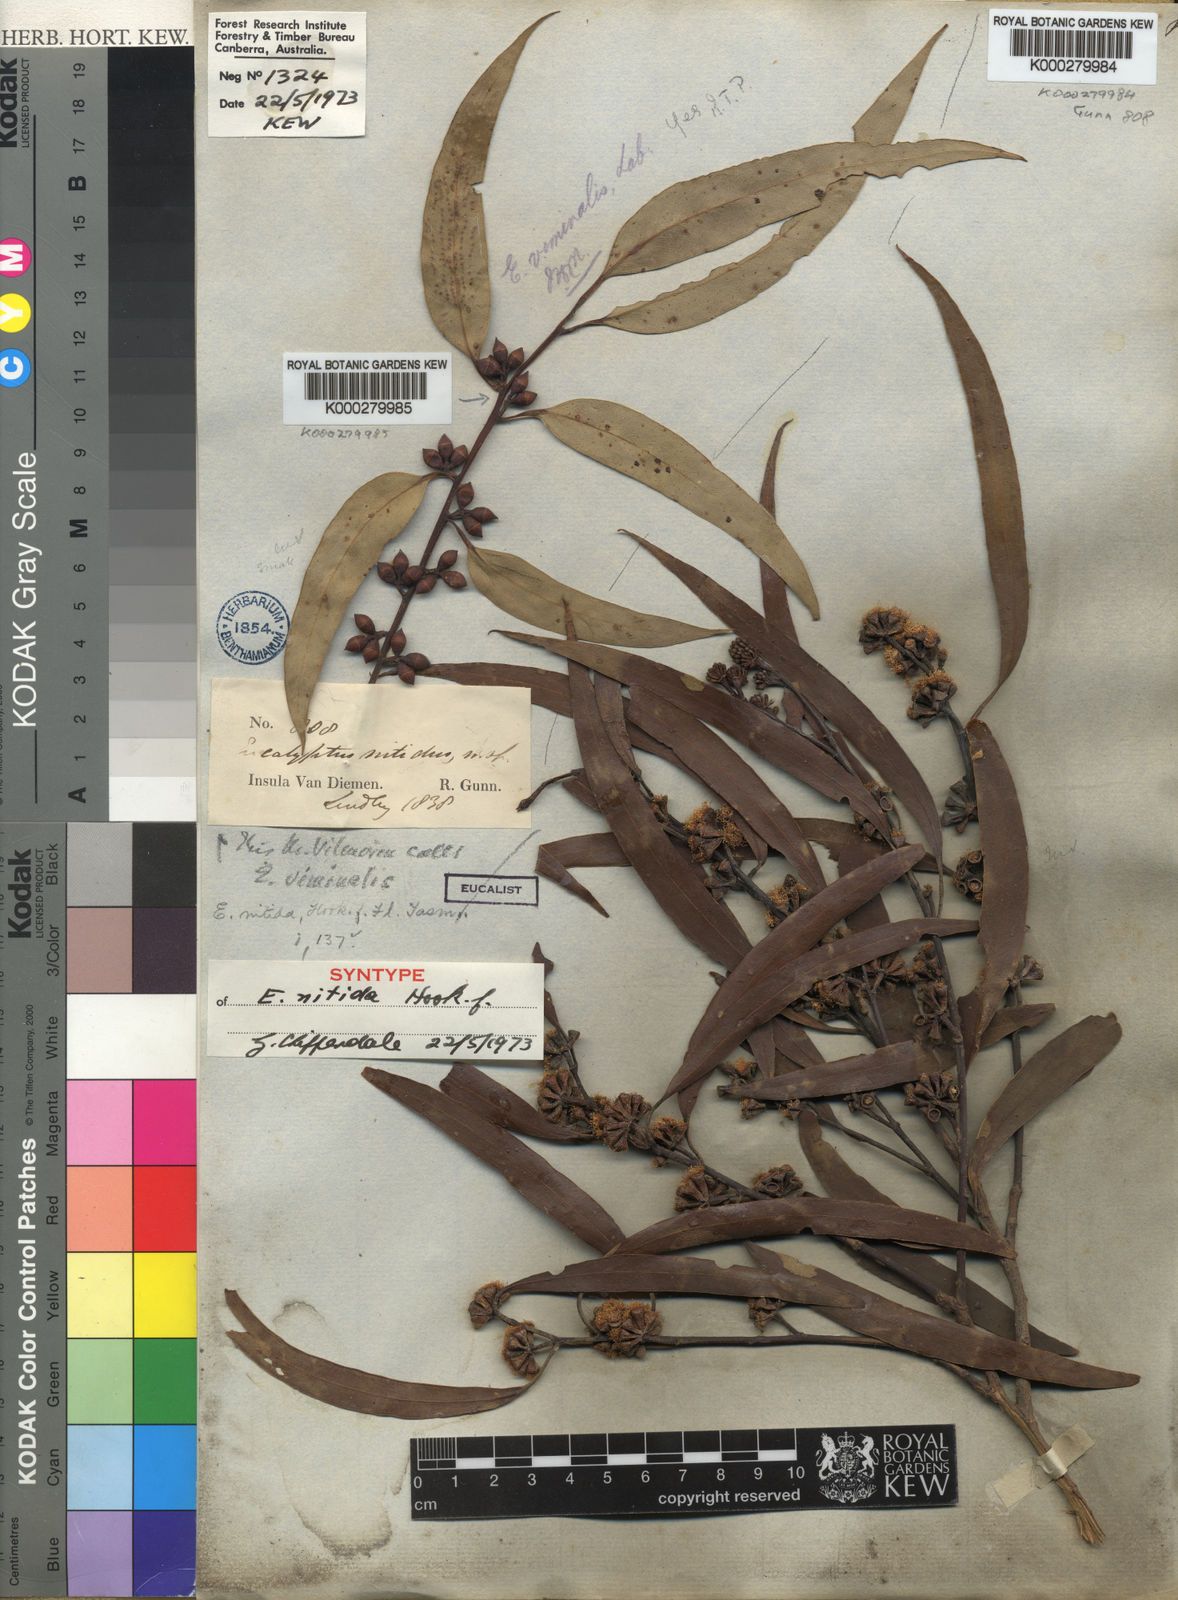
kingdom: Plantae
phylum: Tracheophyta
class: Magnoliopsida
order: Myrtales
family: Myrtaceae
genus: Eucalyptus
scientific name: Eucalyptus nitida
